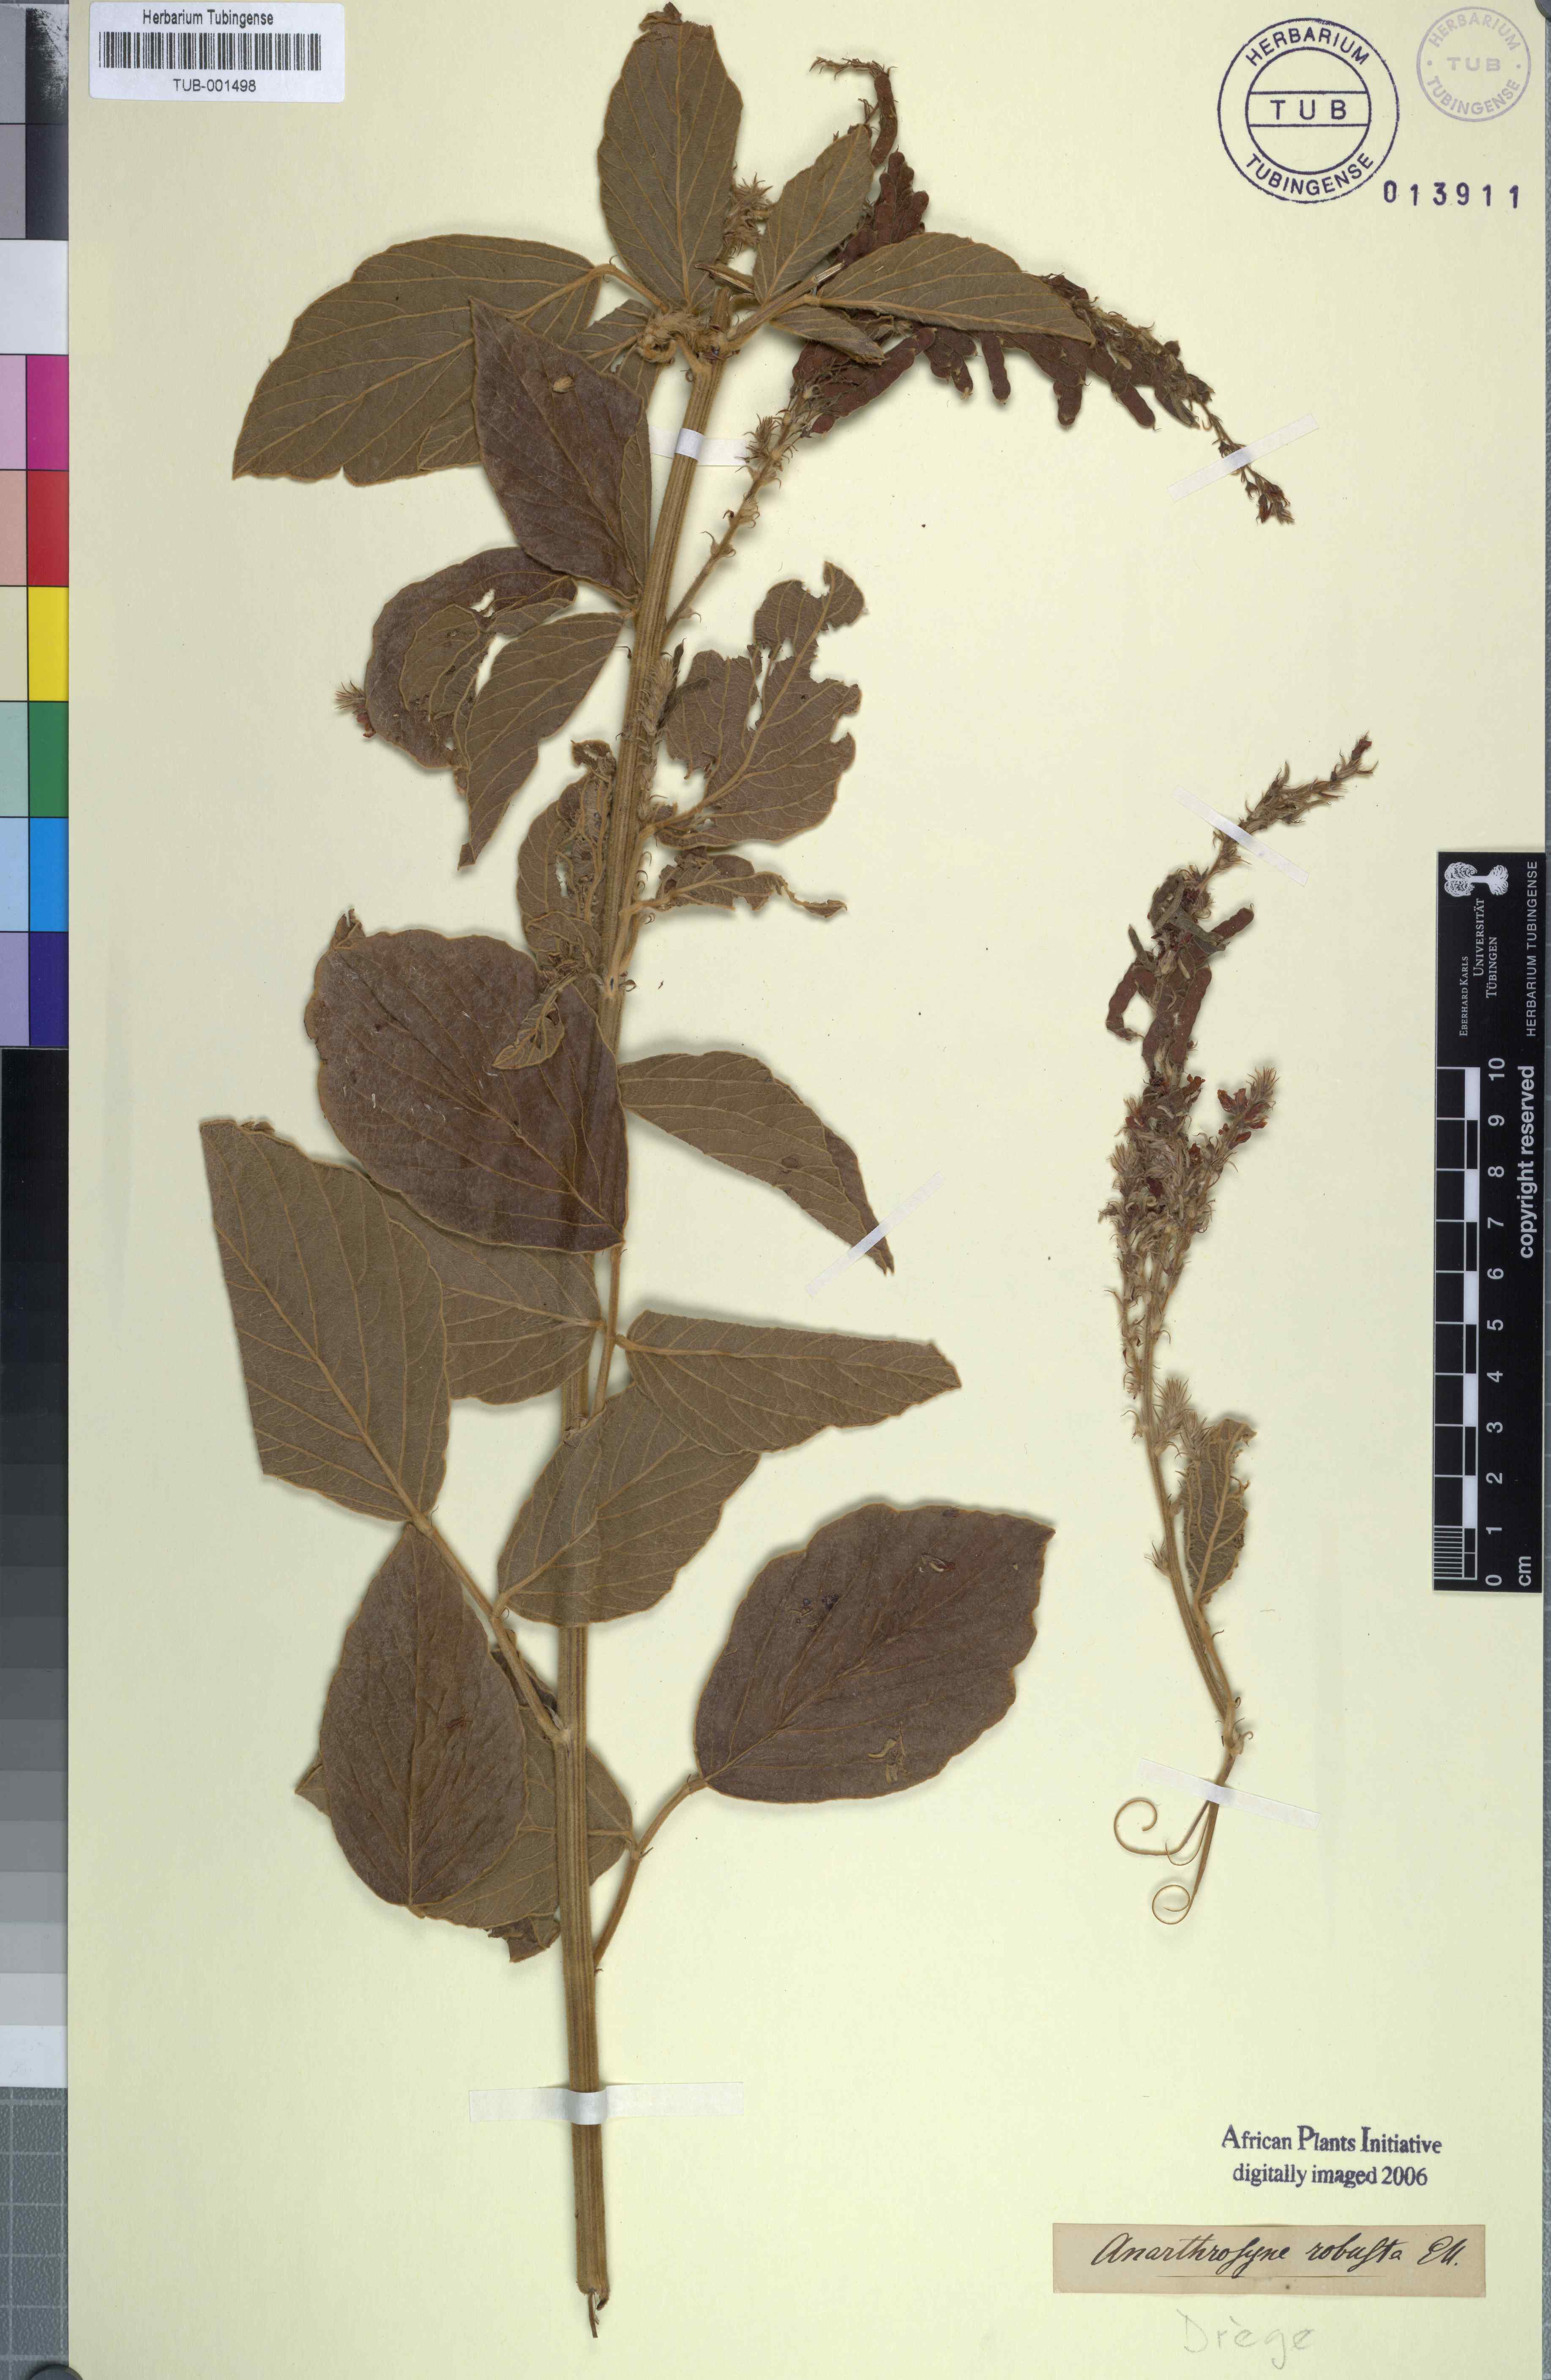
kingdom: Plantae
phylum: Tracheophyta
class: Magnoliopsida
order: Fabales
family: Fabaceae
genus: Pseudarthria
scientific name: Pseudarthria hookeri
